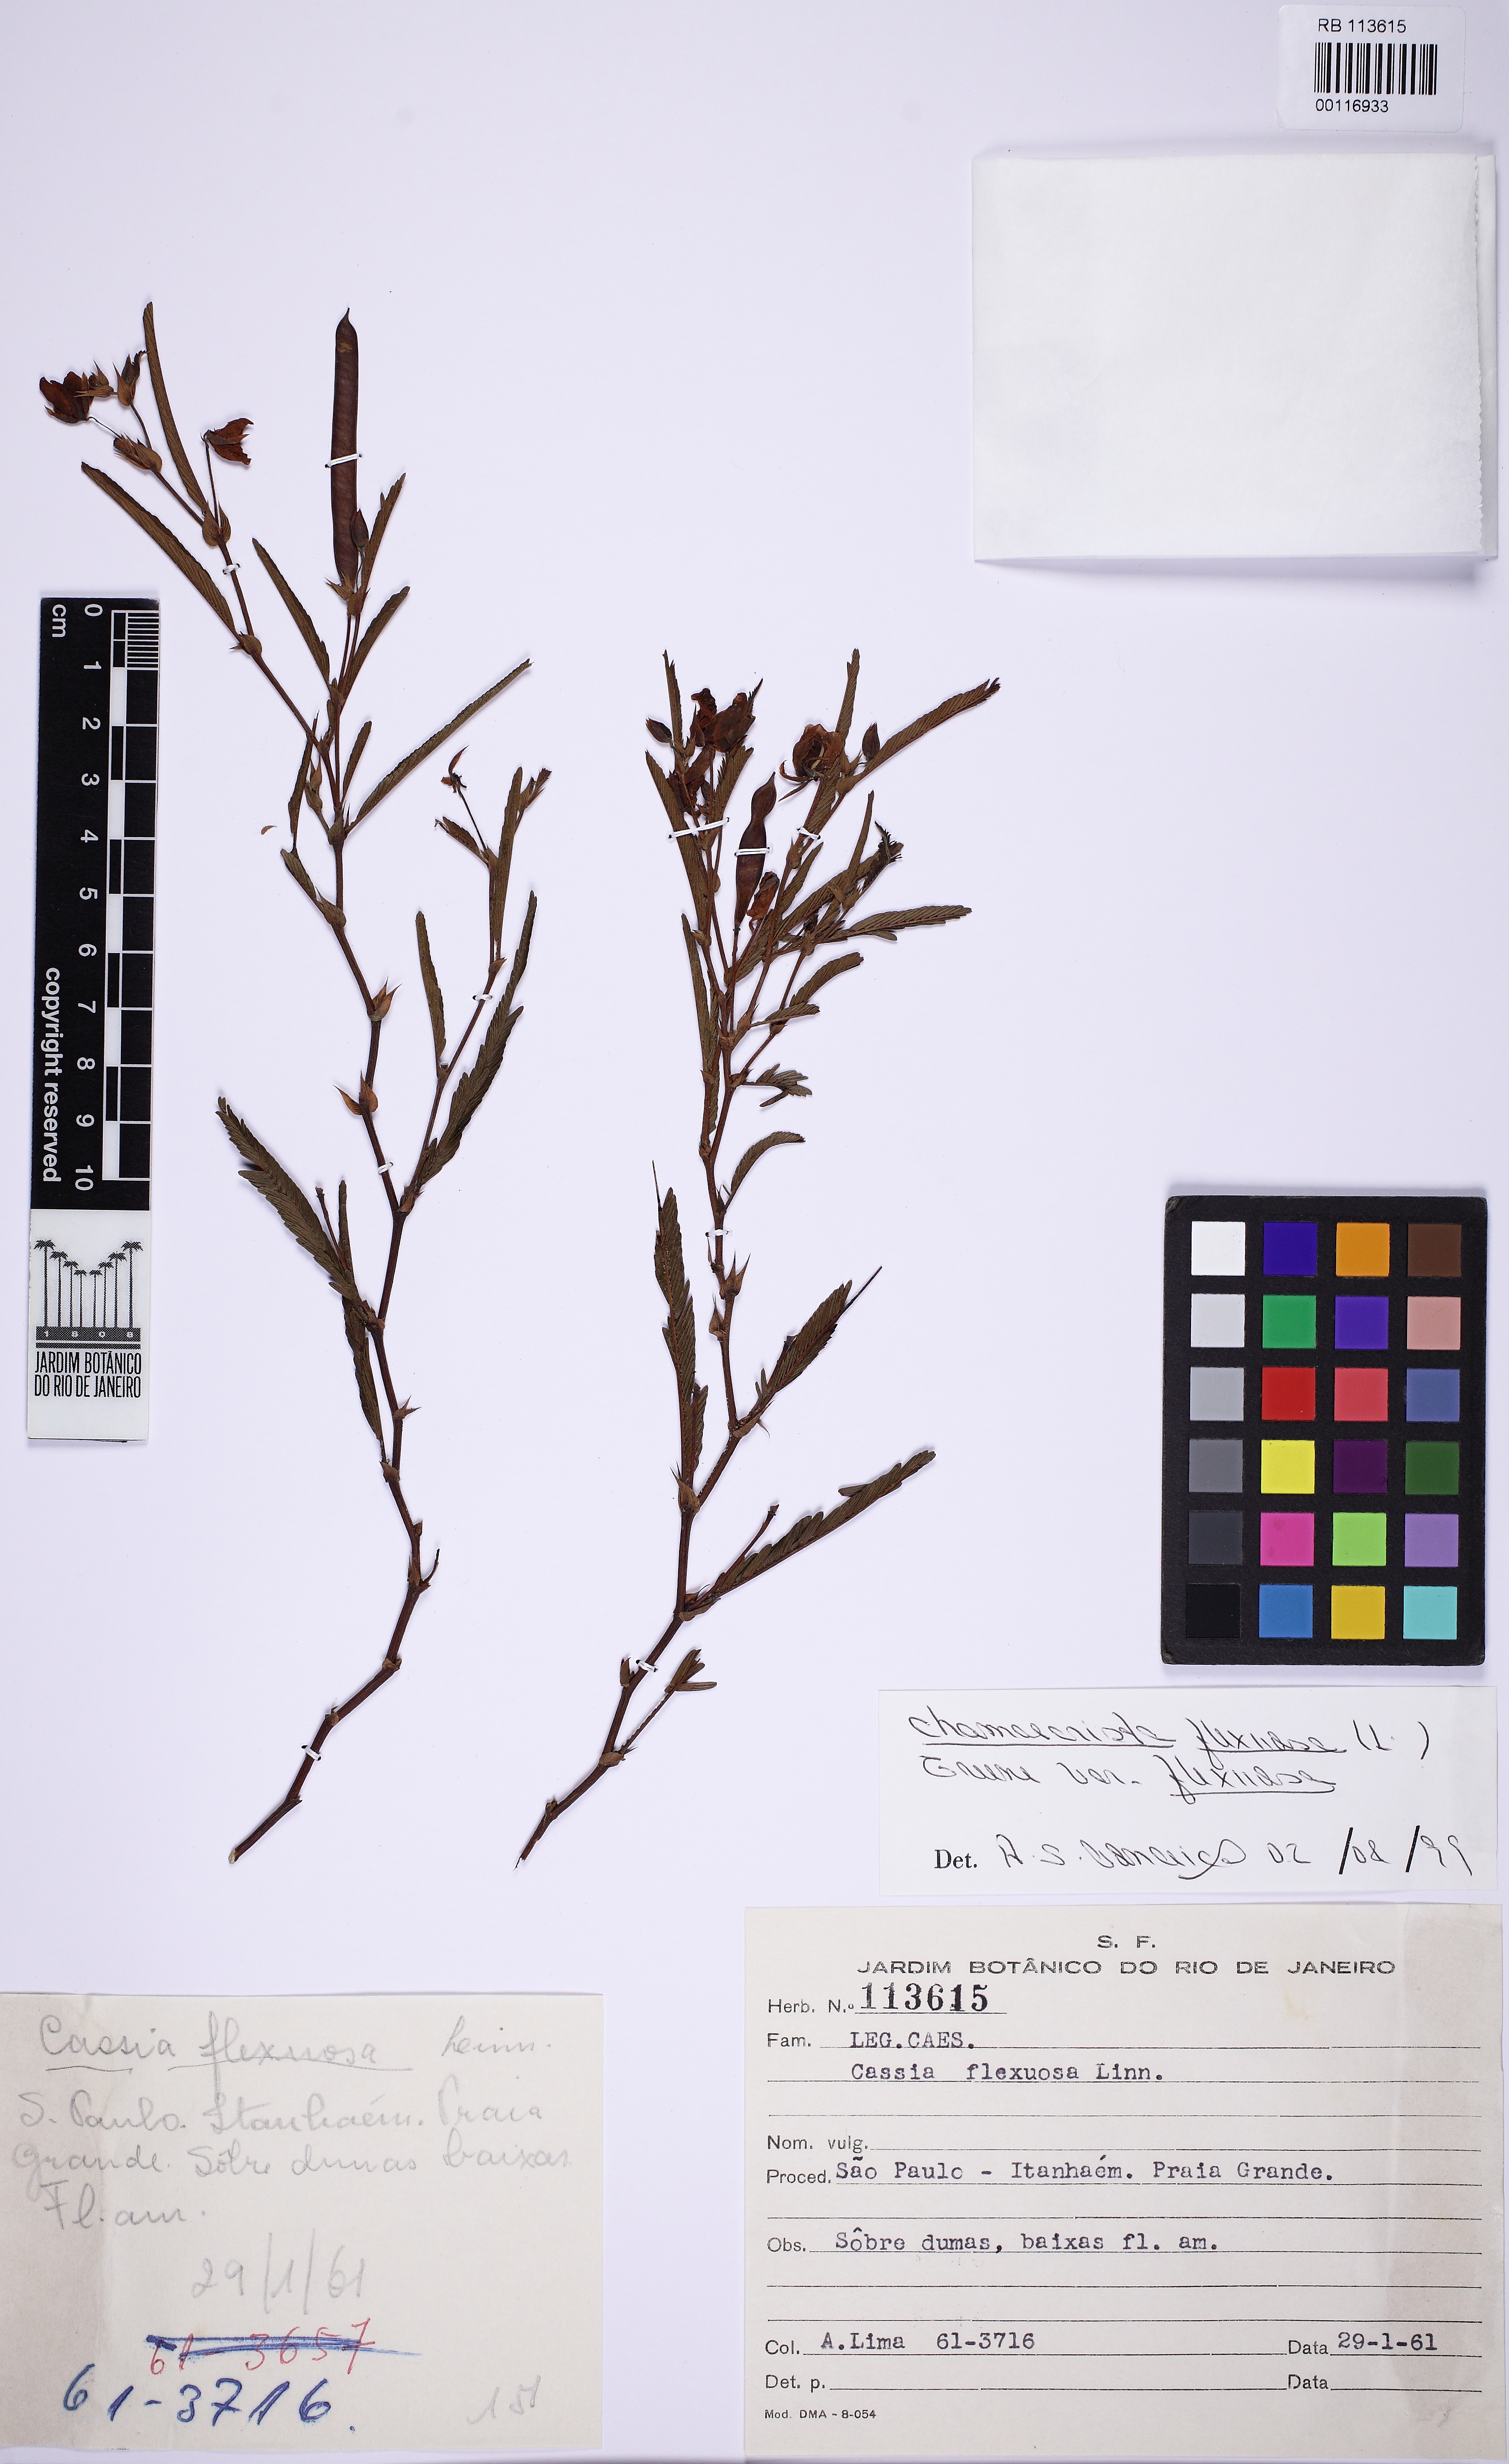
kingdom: Plantae
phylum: Tracheophyta
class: Magnoliopsida
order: Fabales
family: Fabaceae
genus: Chamaecrista
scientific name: Chamaecrista flexuosa
